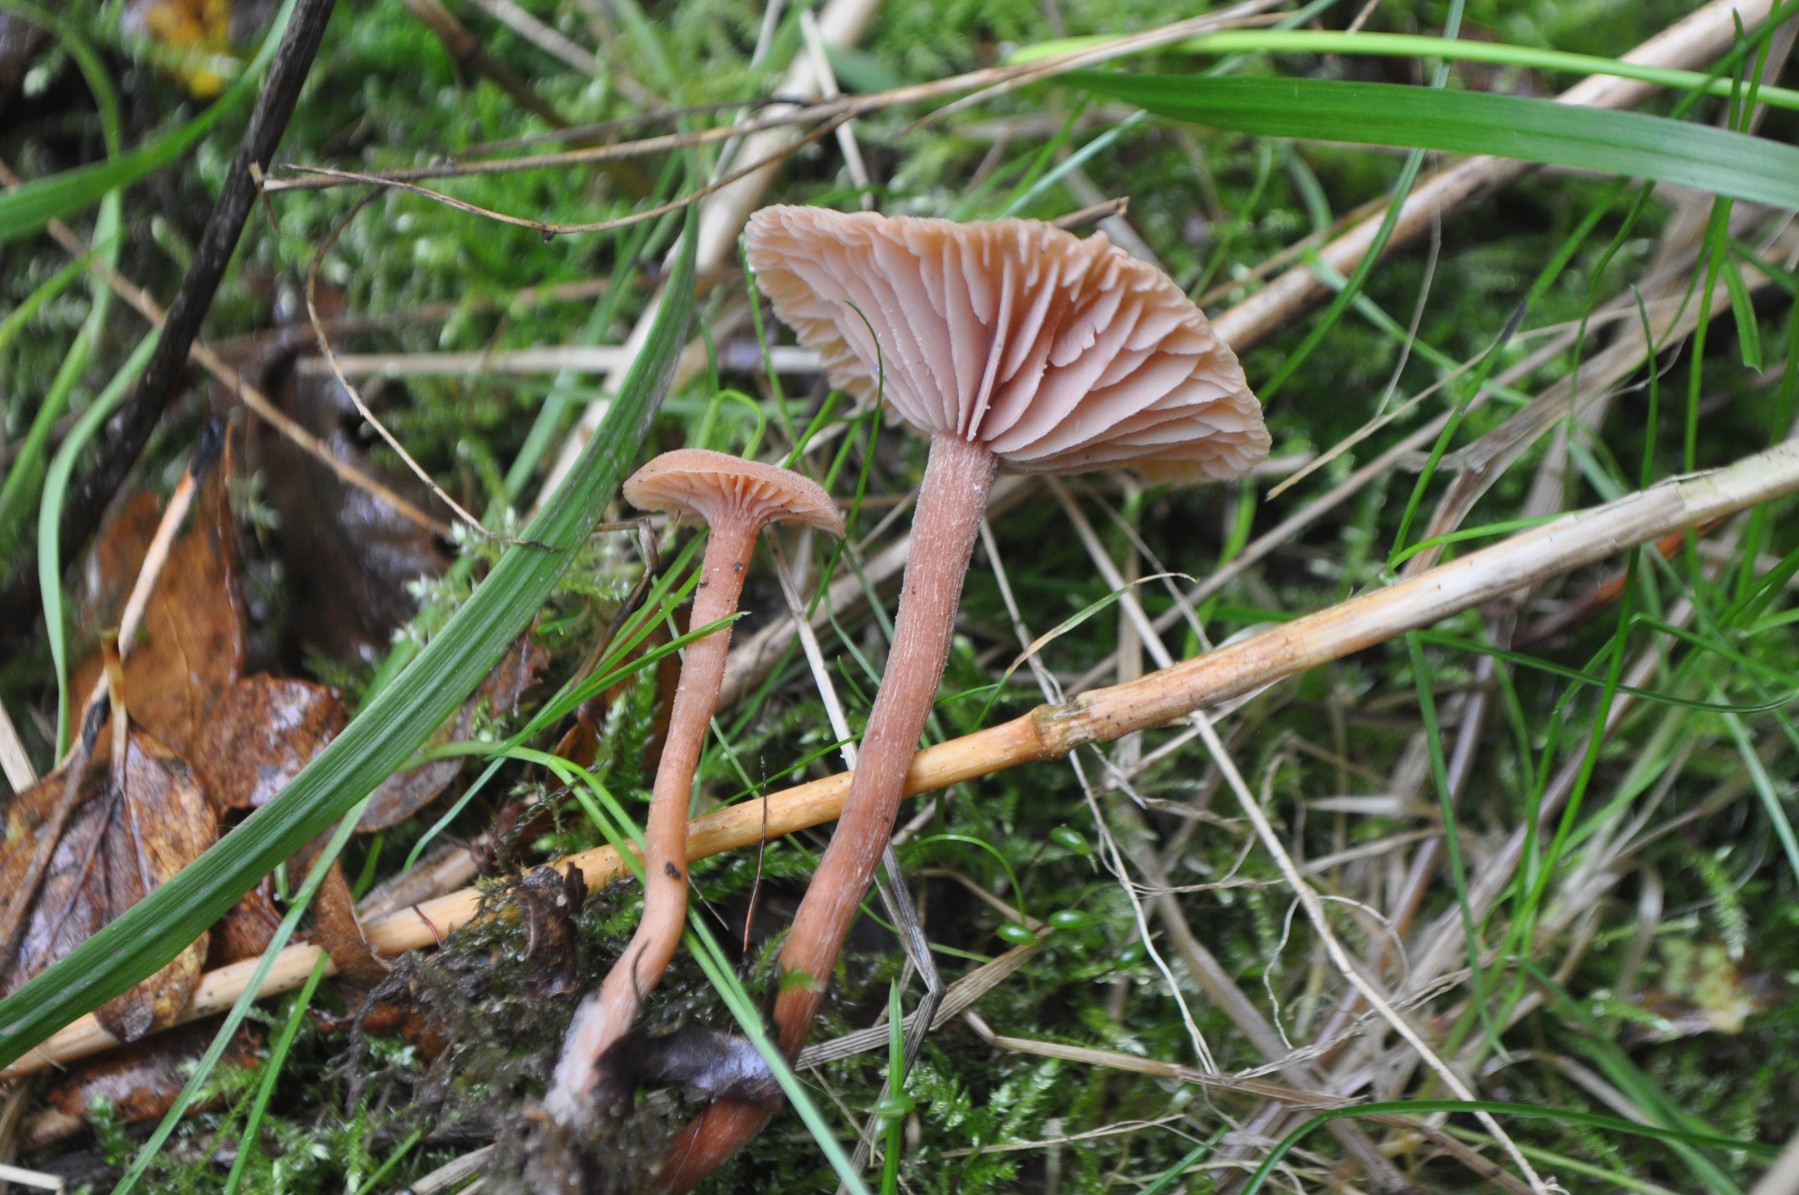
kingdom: Fungi
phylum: Basidiomycota
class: Agaricomycetes
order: Agaricales
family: Hydnangiaceae
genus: Laccaria
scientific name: Laccaria laccata
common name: rød ametysthat
